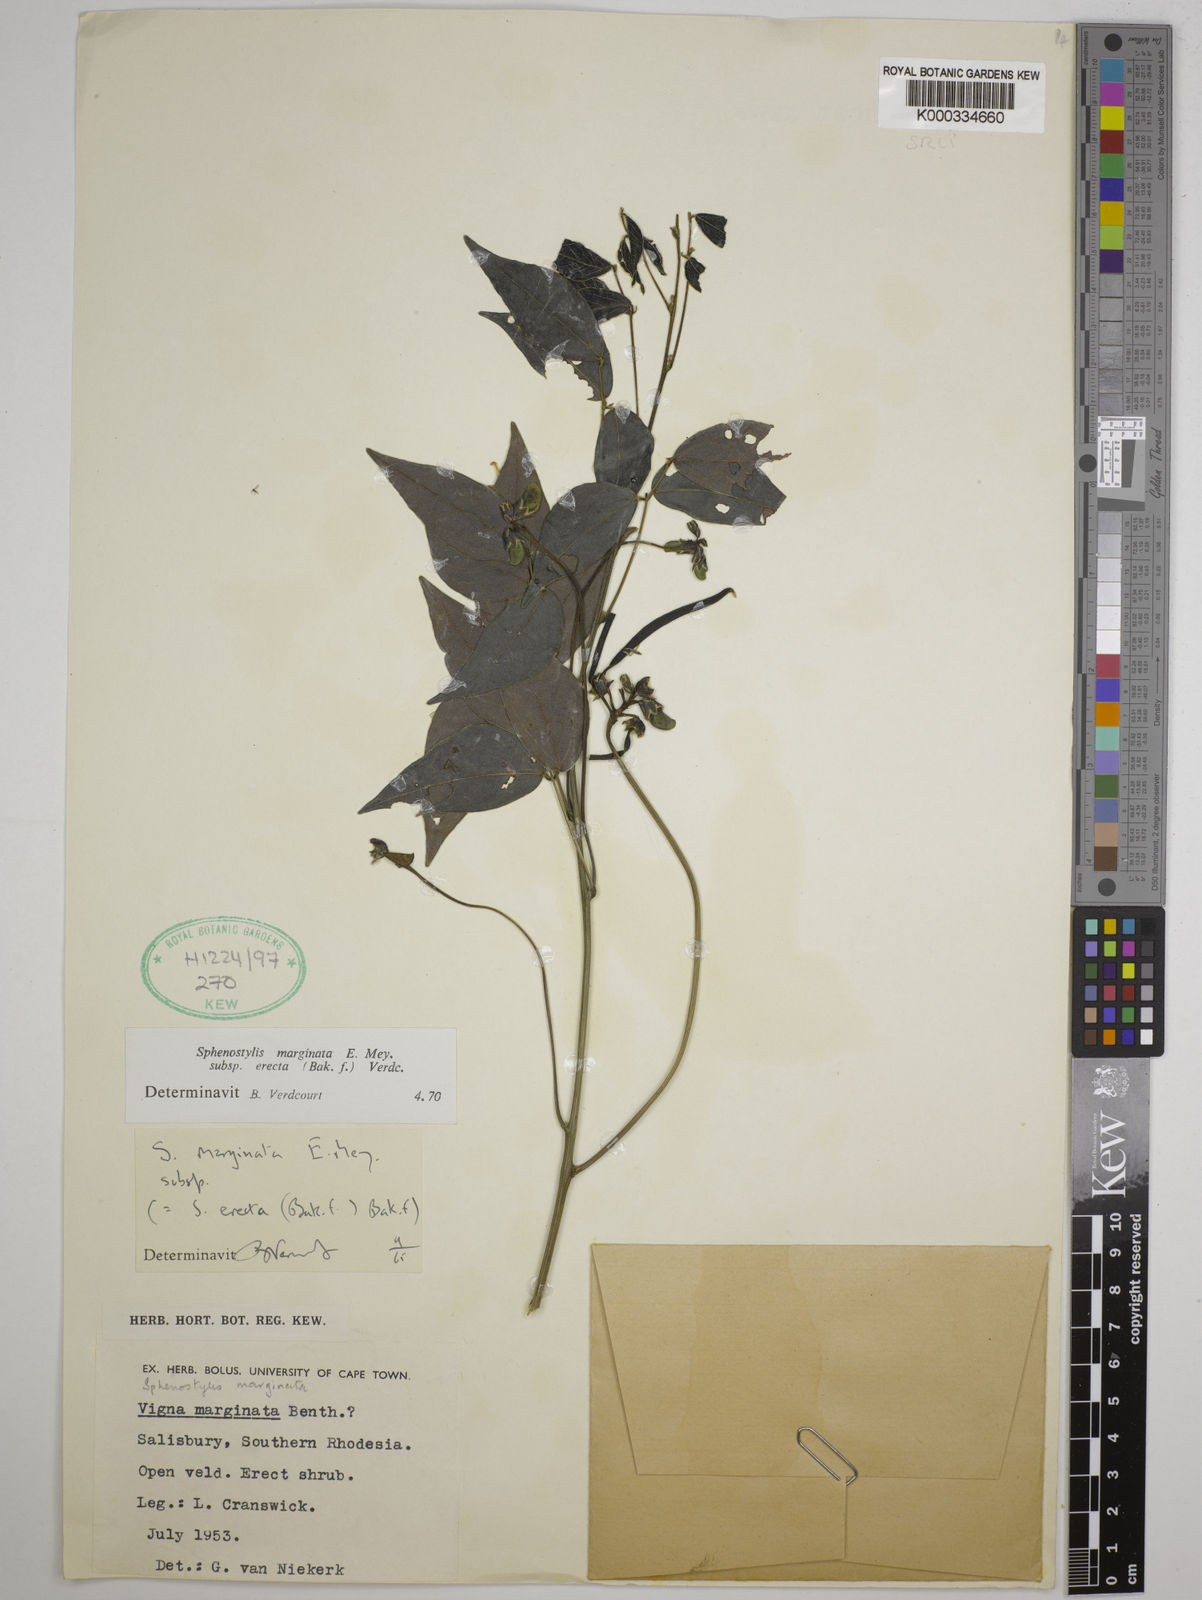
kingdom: Plantae
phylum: Tracheophyta
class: Magnoliopsida
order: Fabales
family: Fabaceae
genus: Sphenostylis
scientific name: Sphenostylis erecta
